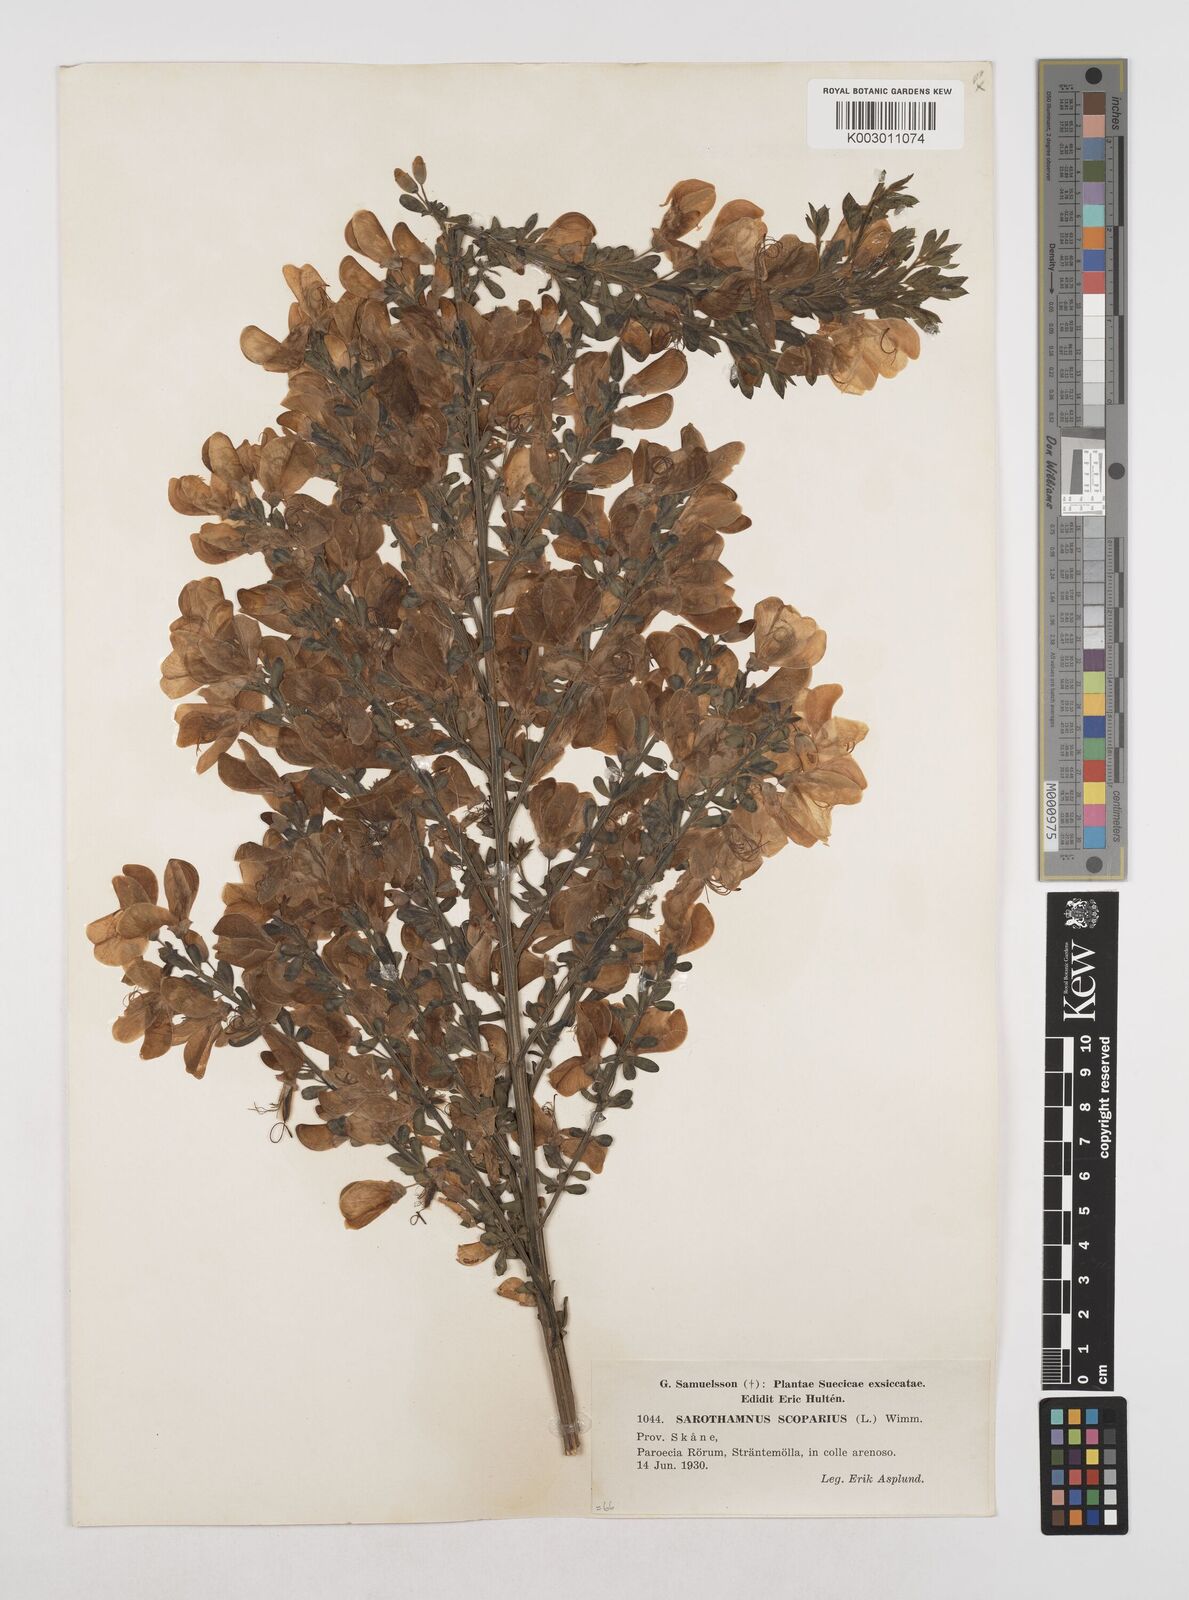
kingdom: Plantae
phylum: Tracheophyta
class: Magnoliopsida
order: Fabales
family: Fabaceae
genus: Cytisus
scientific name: Cytisus scoparius
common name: Scotch broom
